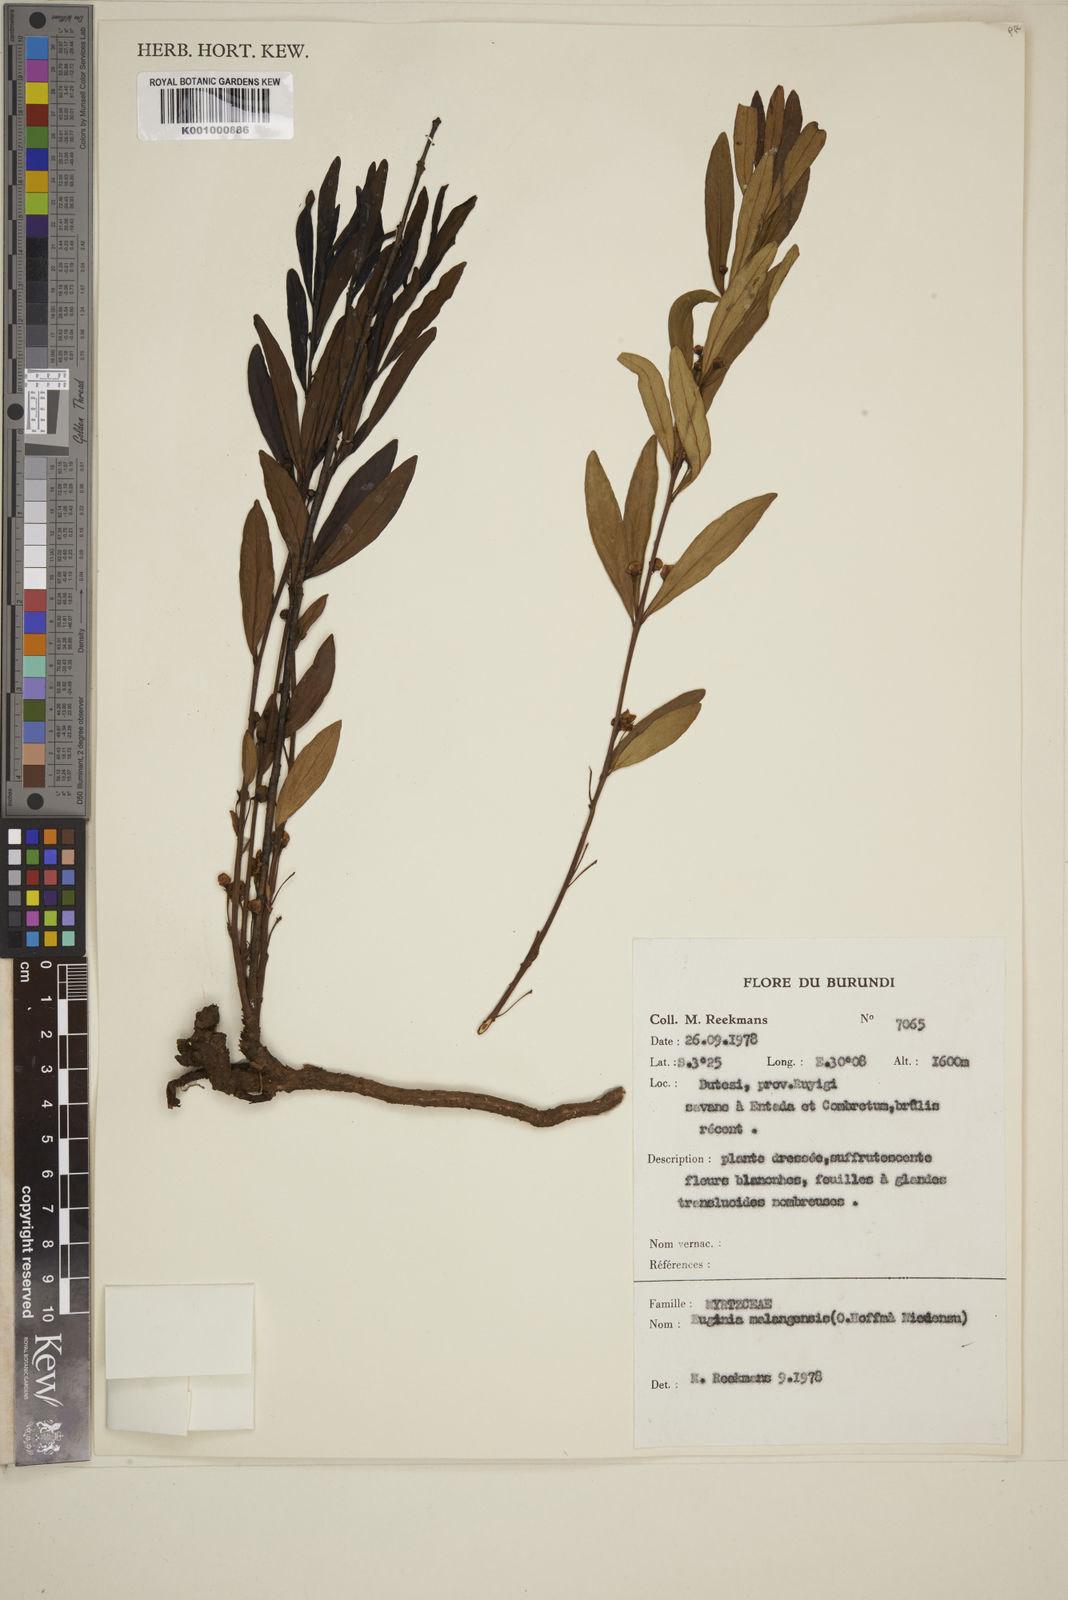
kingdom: Plantae
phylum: Tracheophyta
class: Magnoliopsida
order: Myrtales
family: Myrtaceae
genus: Eugenia
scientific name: Eugenia malangensis
